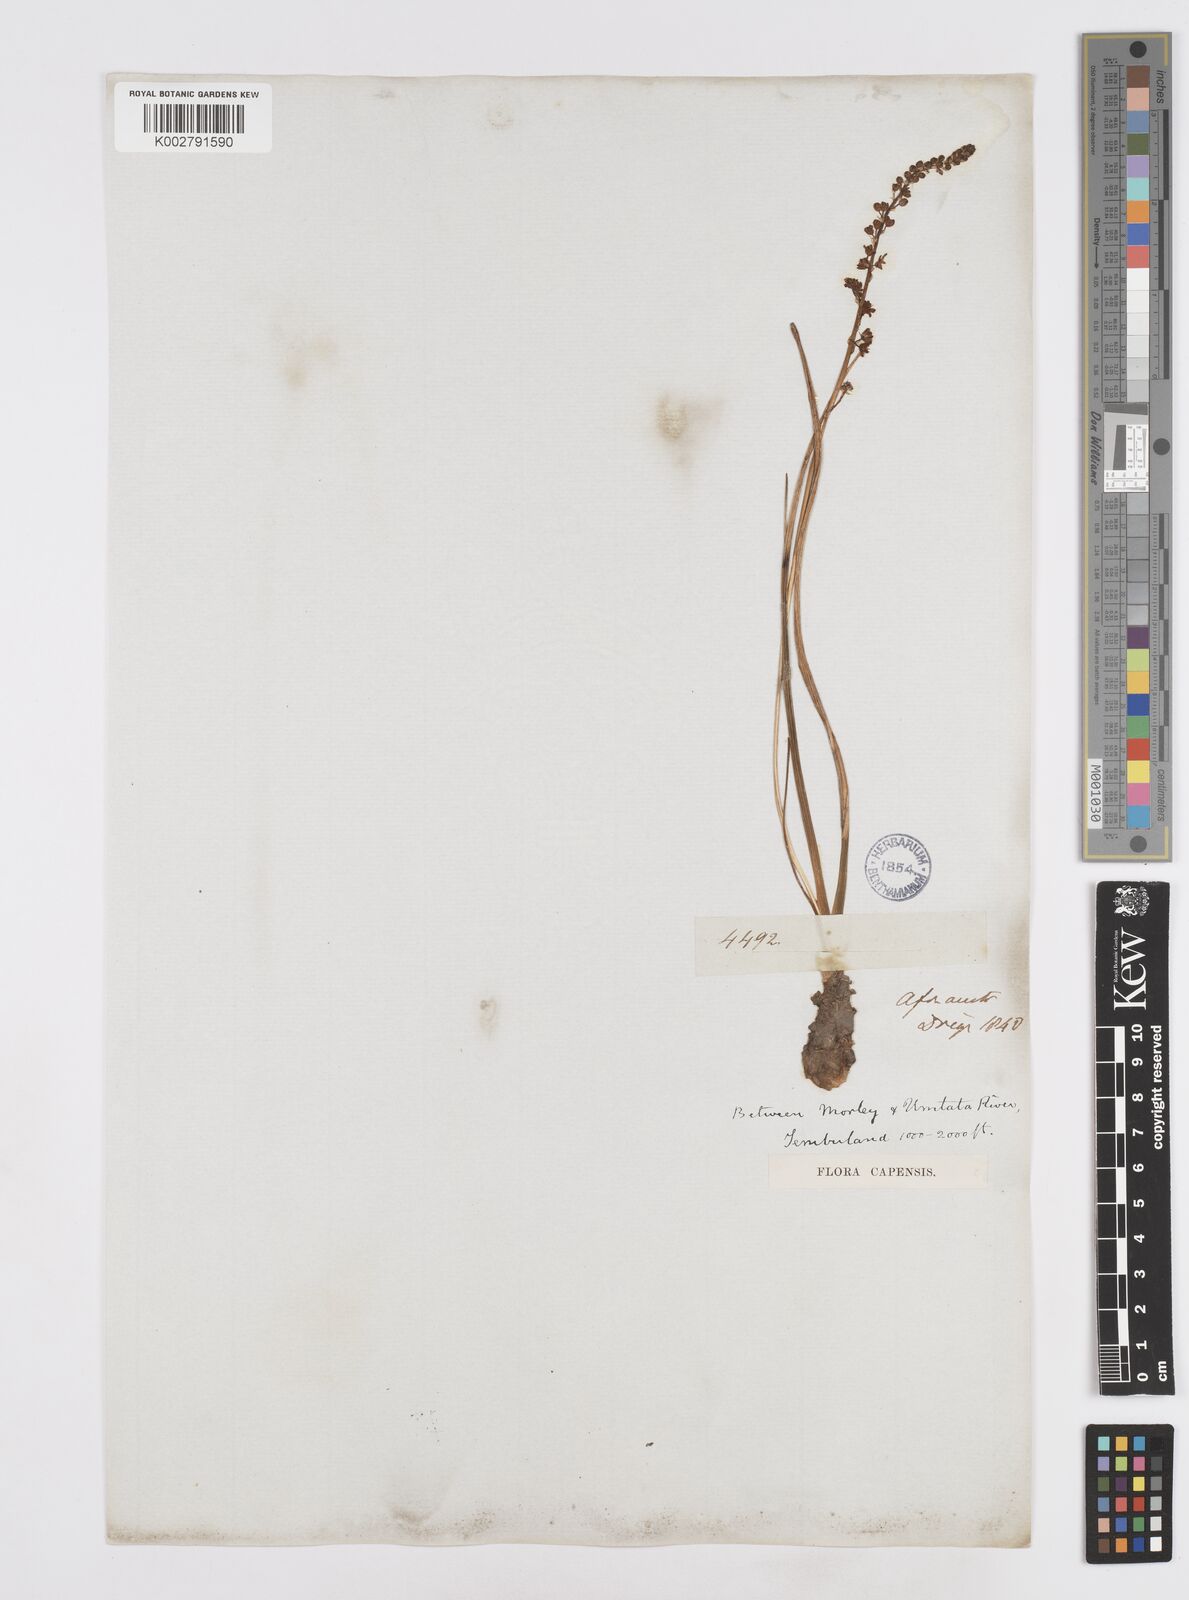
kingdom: Plantae
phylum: Tracheophyta
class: Liliopsida
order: Asparagales
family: Asparagaceae
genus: Pseudoprospero
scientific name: Pseudoprospero firmifolium
